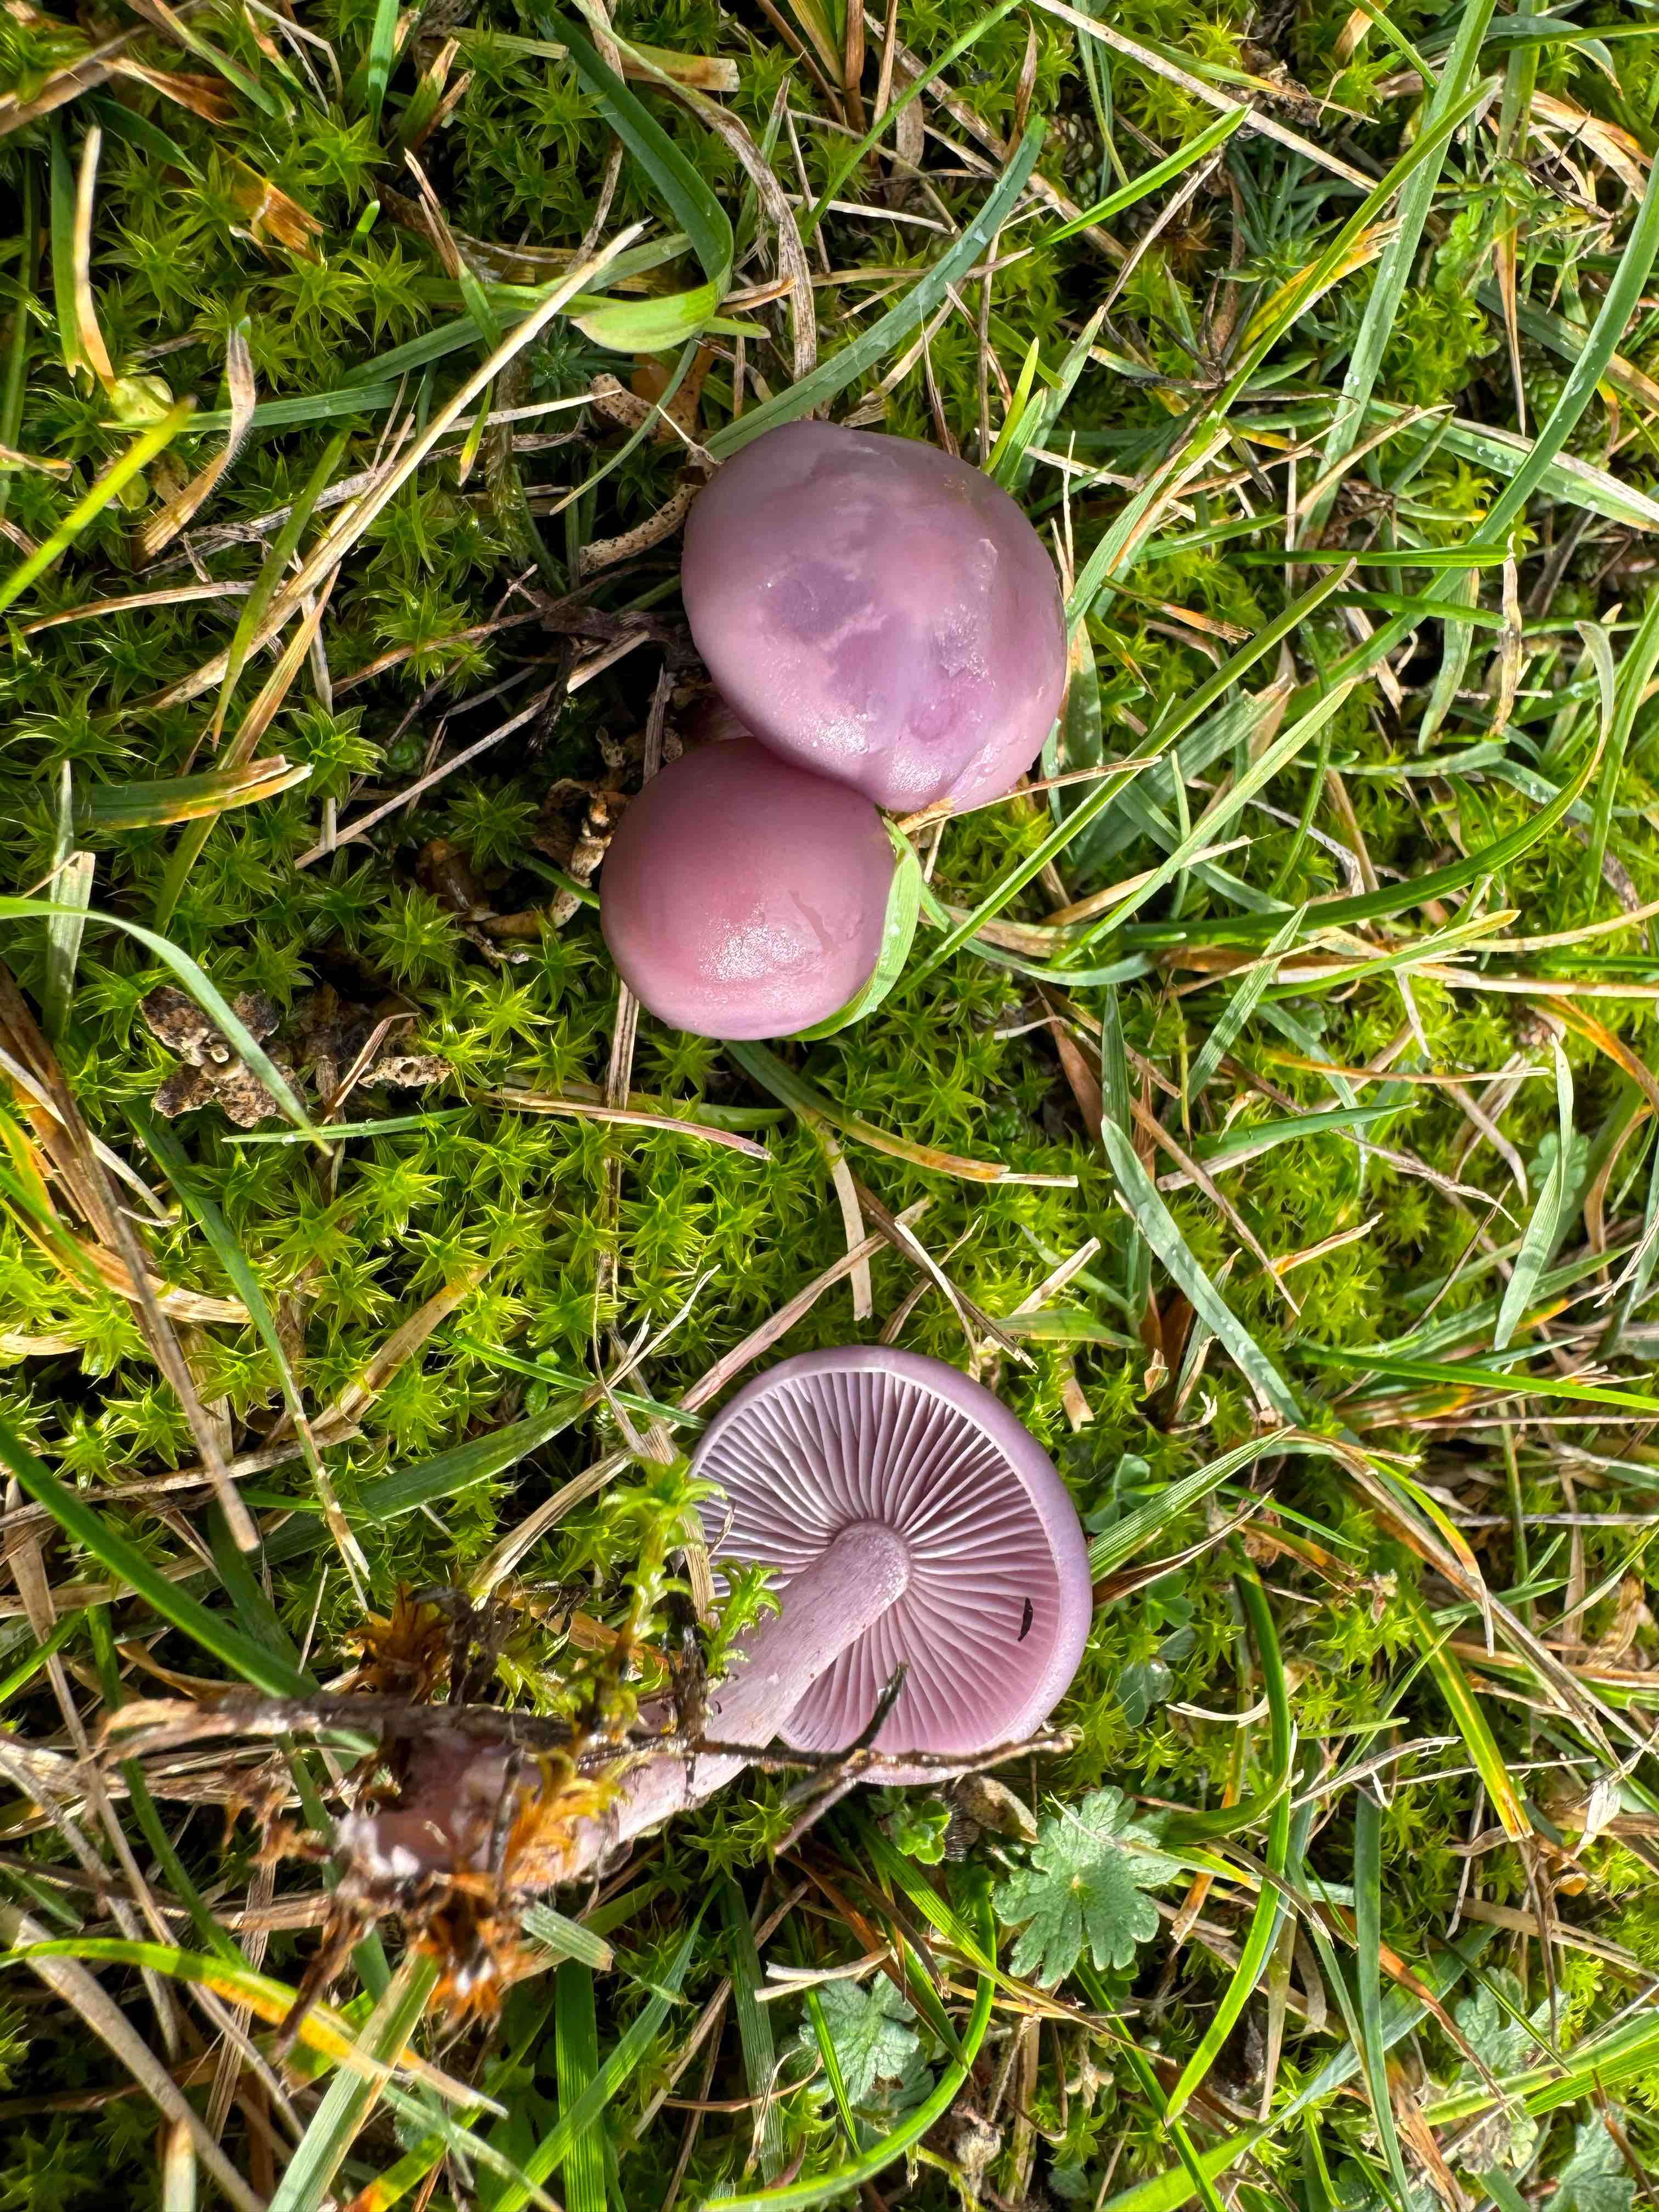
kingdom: Fungi
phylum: Basidiomycota
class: Agaricomycetes
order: Agaricales
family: Tricholomataceae
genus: Lepista
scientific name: Lepista lilacea
